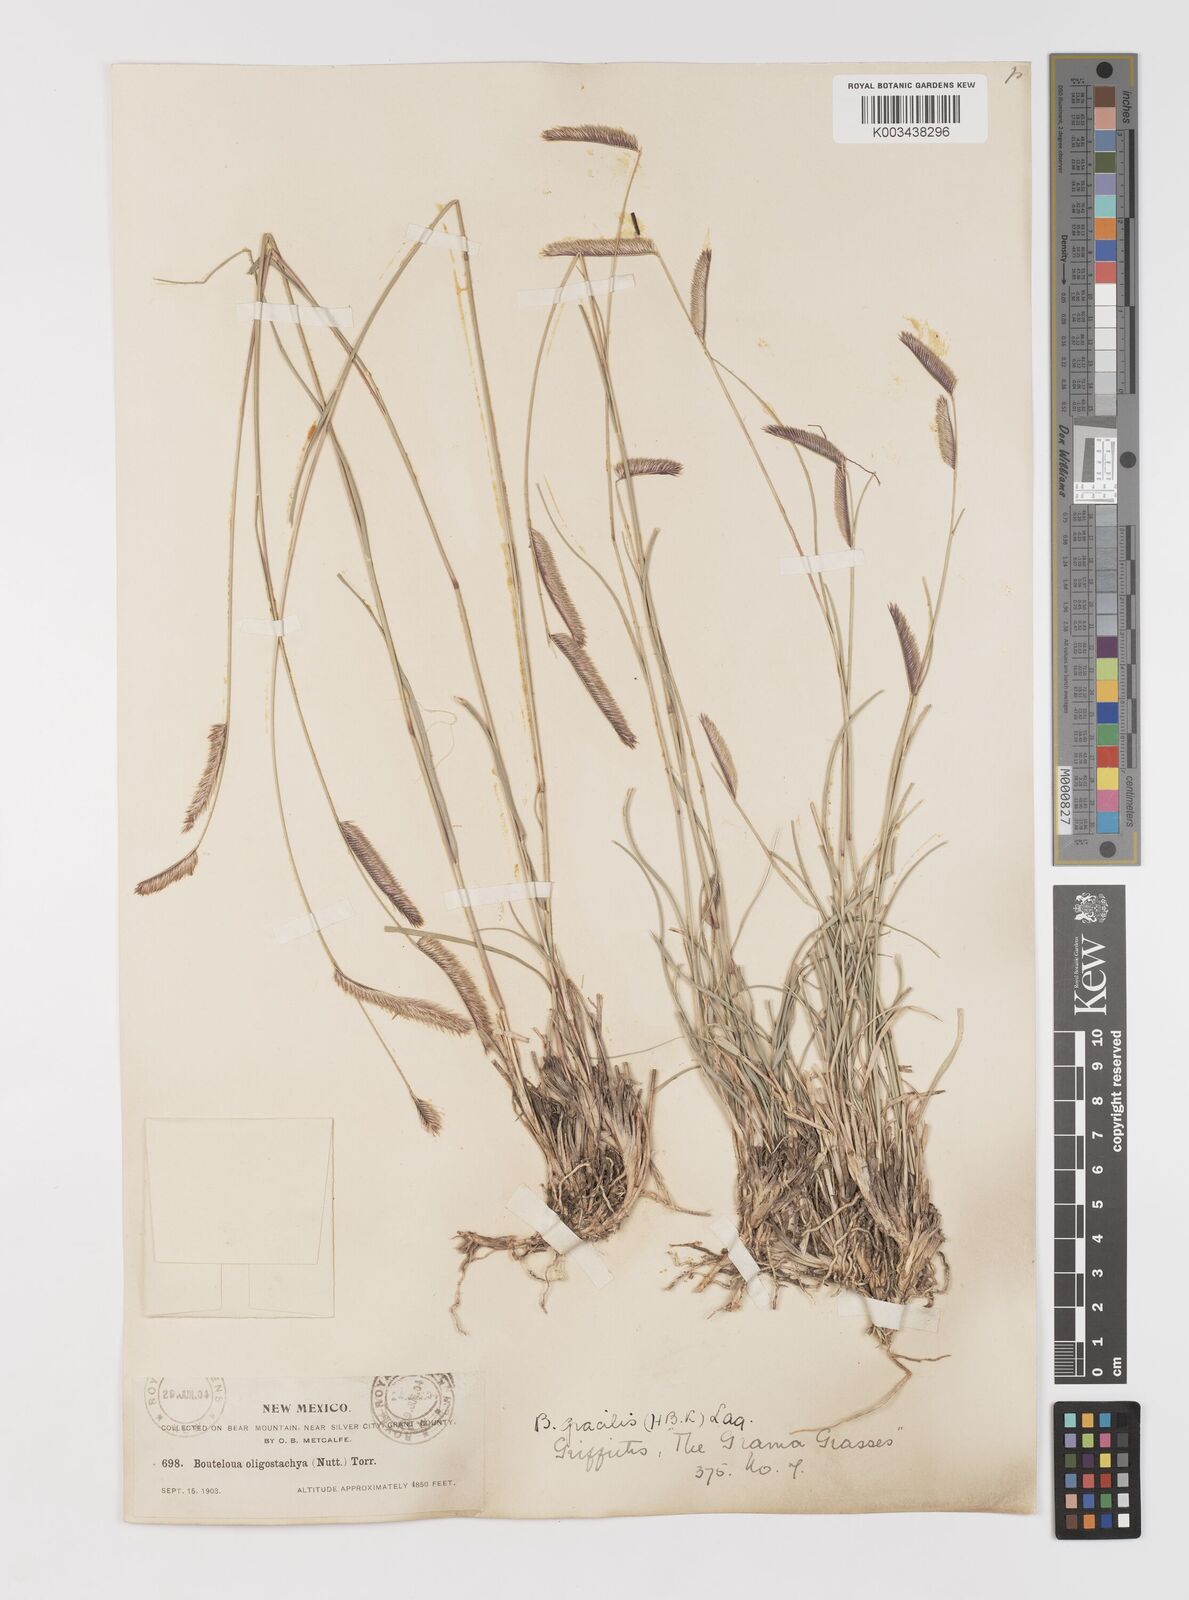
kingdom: Plantae
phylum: Tracheophyta
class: Liliopsida
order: Poales
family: Poaceae
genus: Bouteloua
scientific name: Bouteloua
